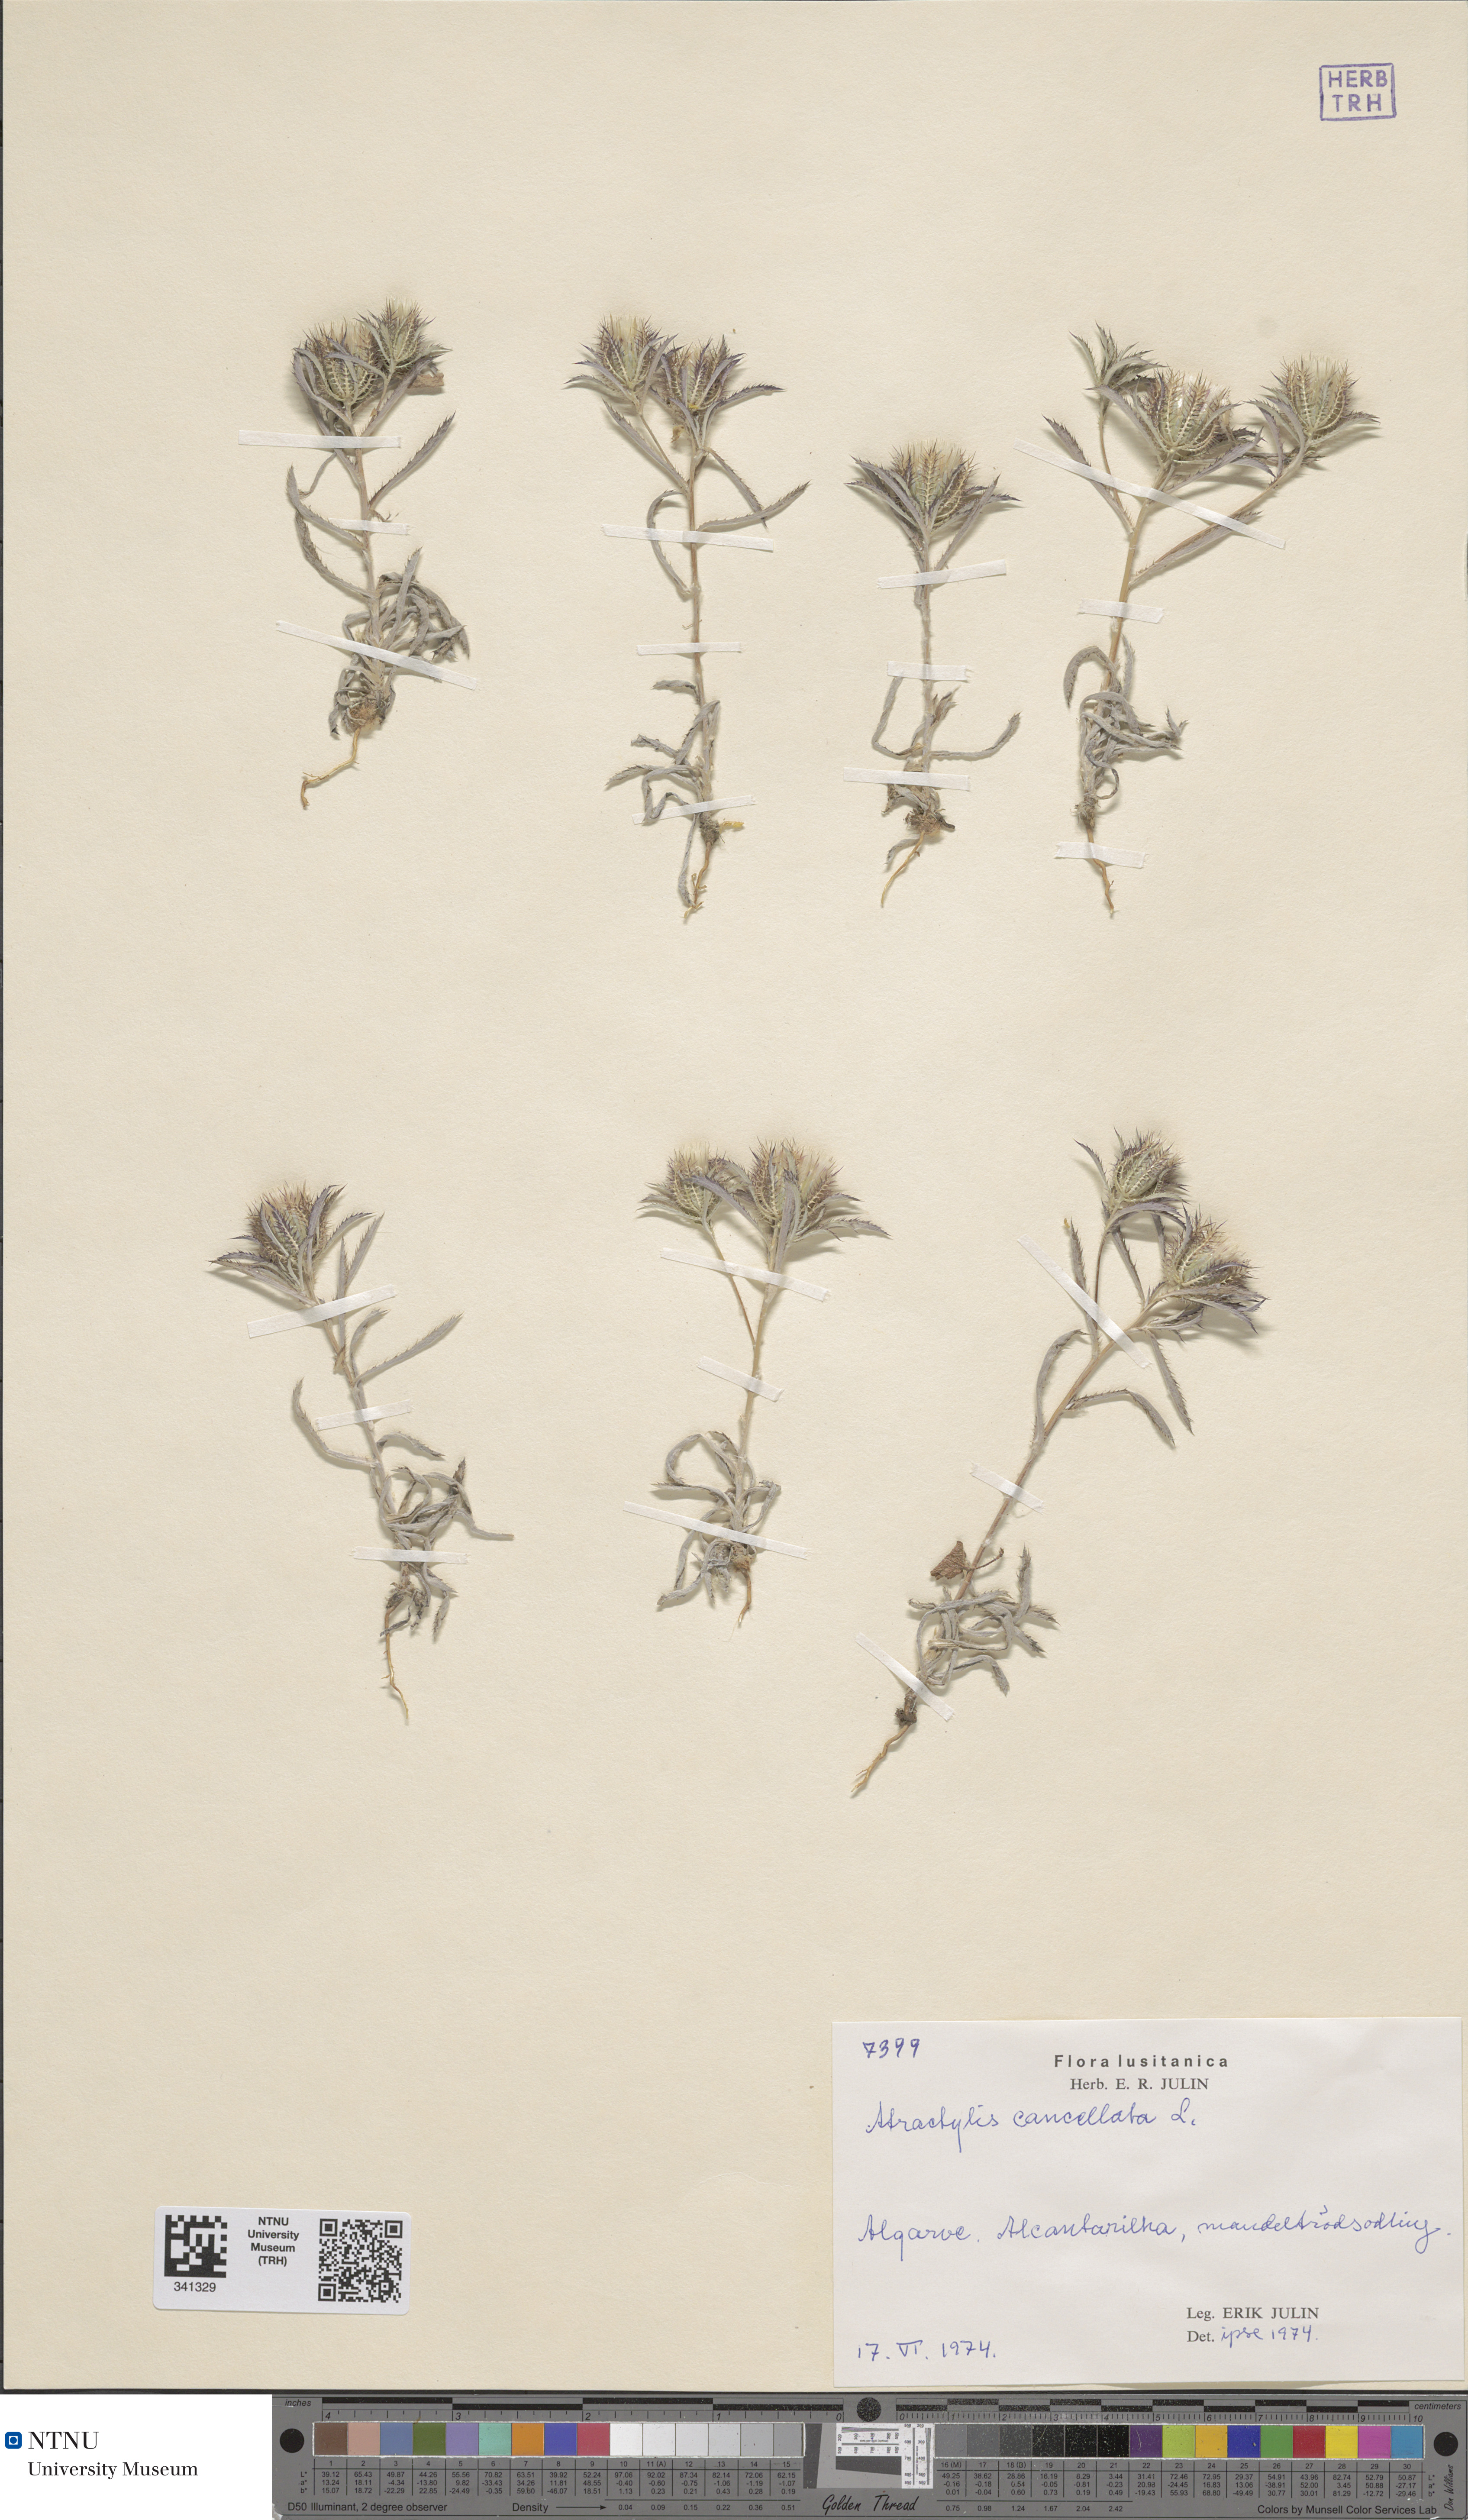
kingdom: Plantae
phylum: Tracheophyta
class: Magnoliopsida
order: Asterales
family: Asteraceae
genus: Atractylis
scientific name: Atractylis cancellata
